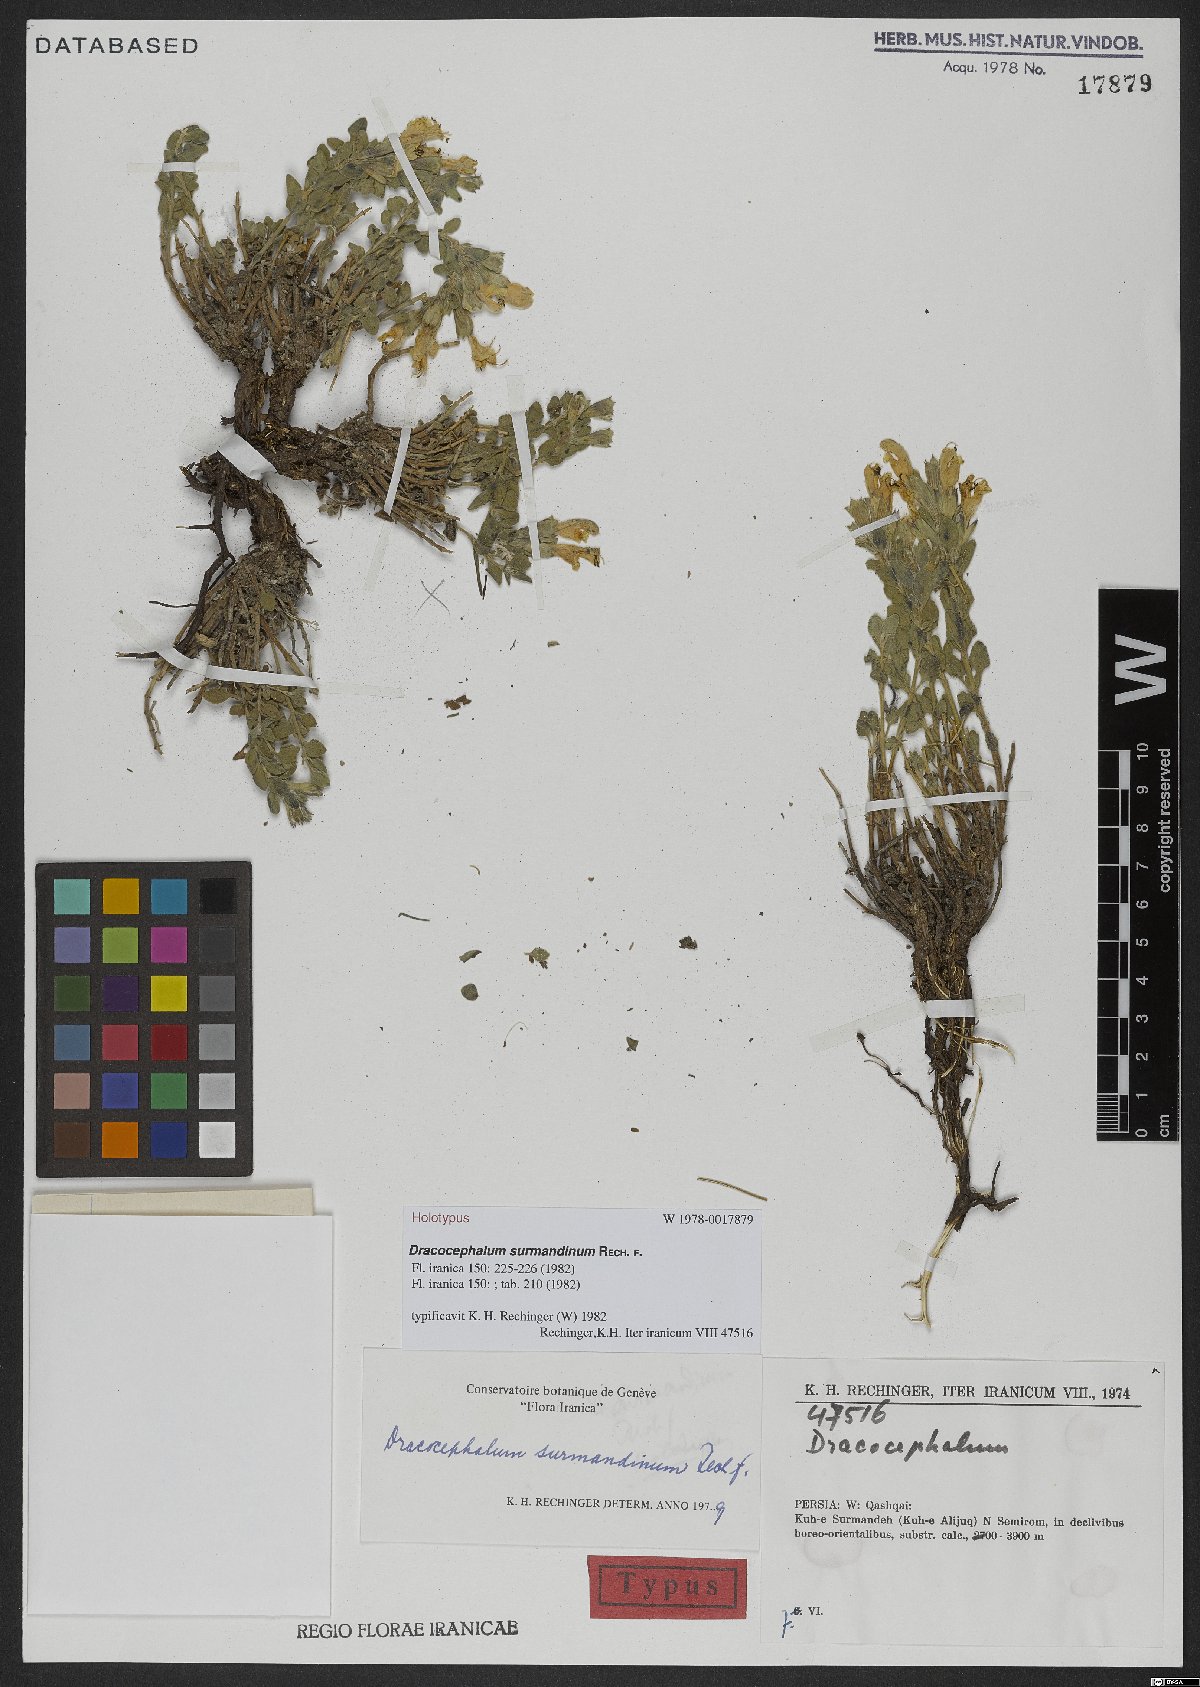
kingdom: Plantae
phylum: Tracheophyta
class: Magnoliopsida
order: Lamiales
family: Lamiaceae
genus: Dracocephalum
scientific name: Dracocephalum surmandinum
